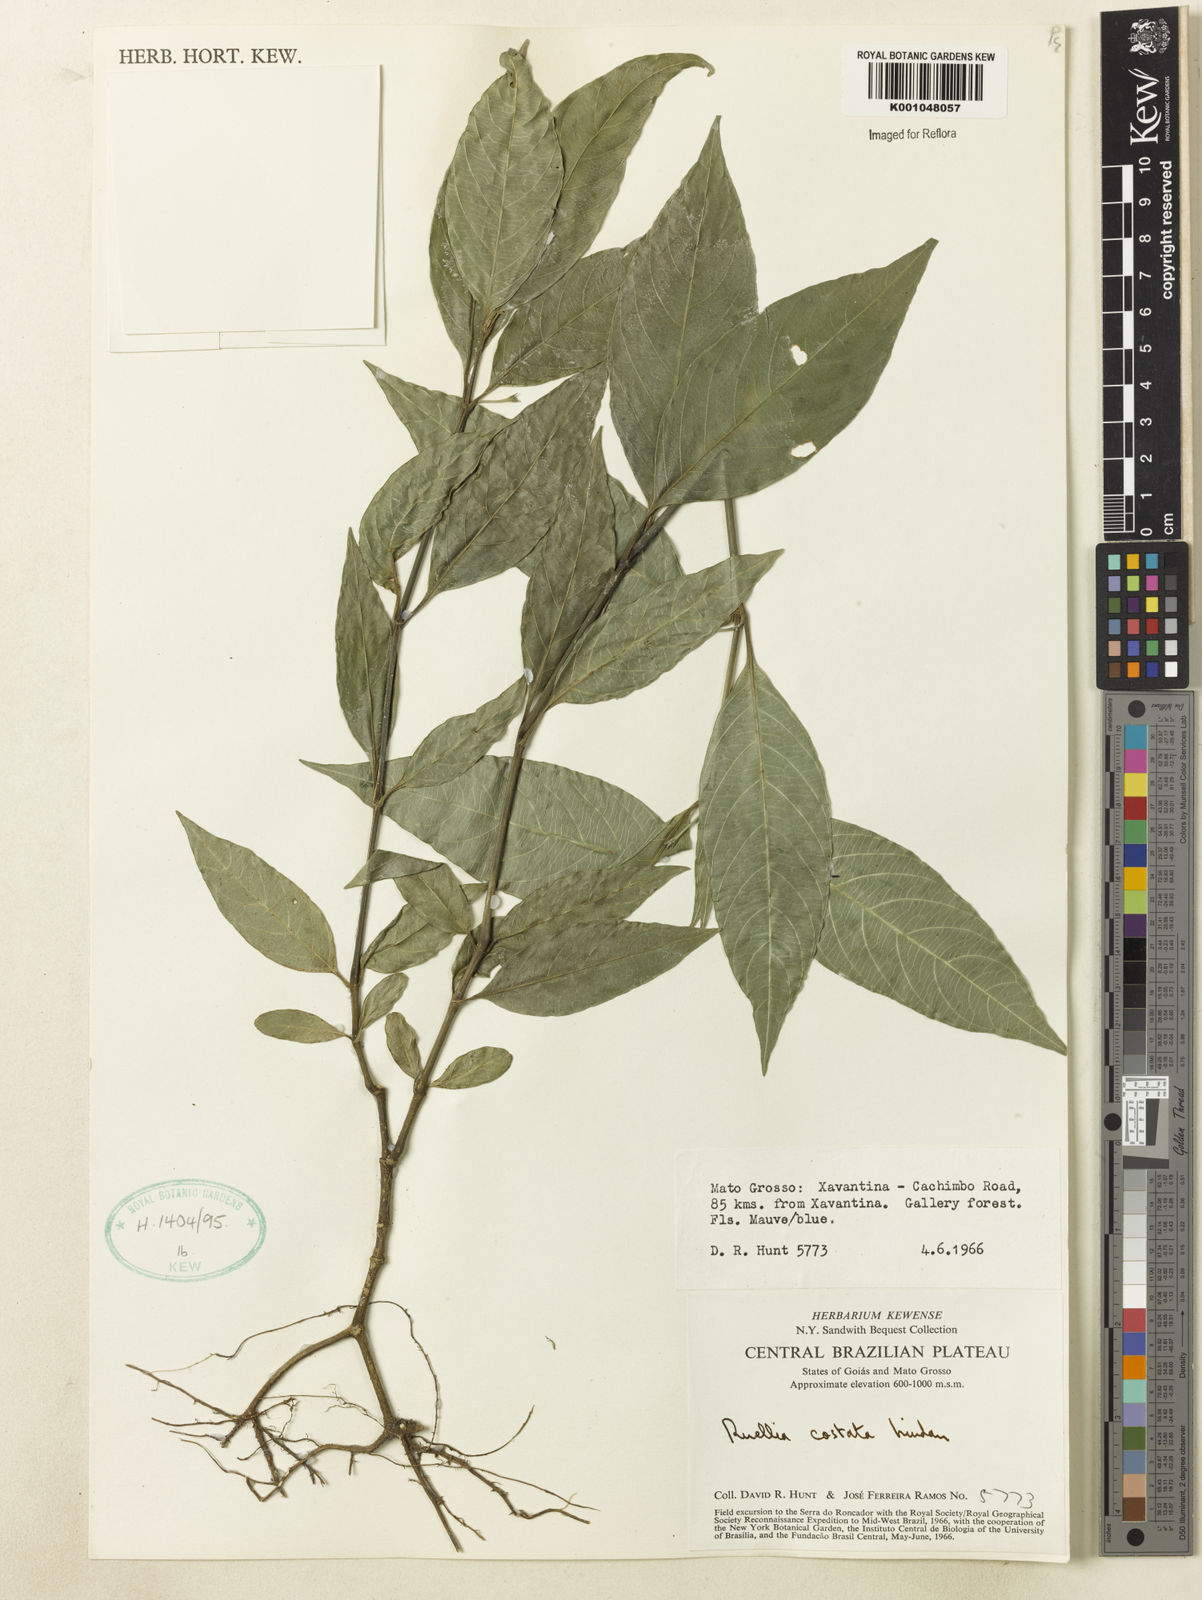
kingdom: Plantae
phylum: Tracheophyta
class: Magnoliopsida
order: Lamiales
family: Acanthaceae
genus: Ruellia
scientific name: Ruellia costata
